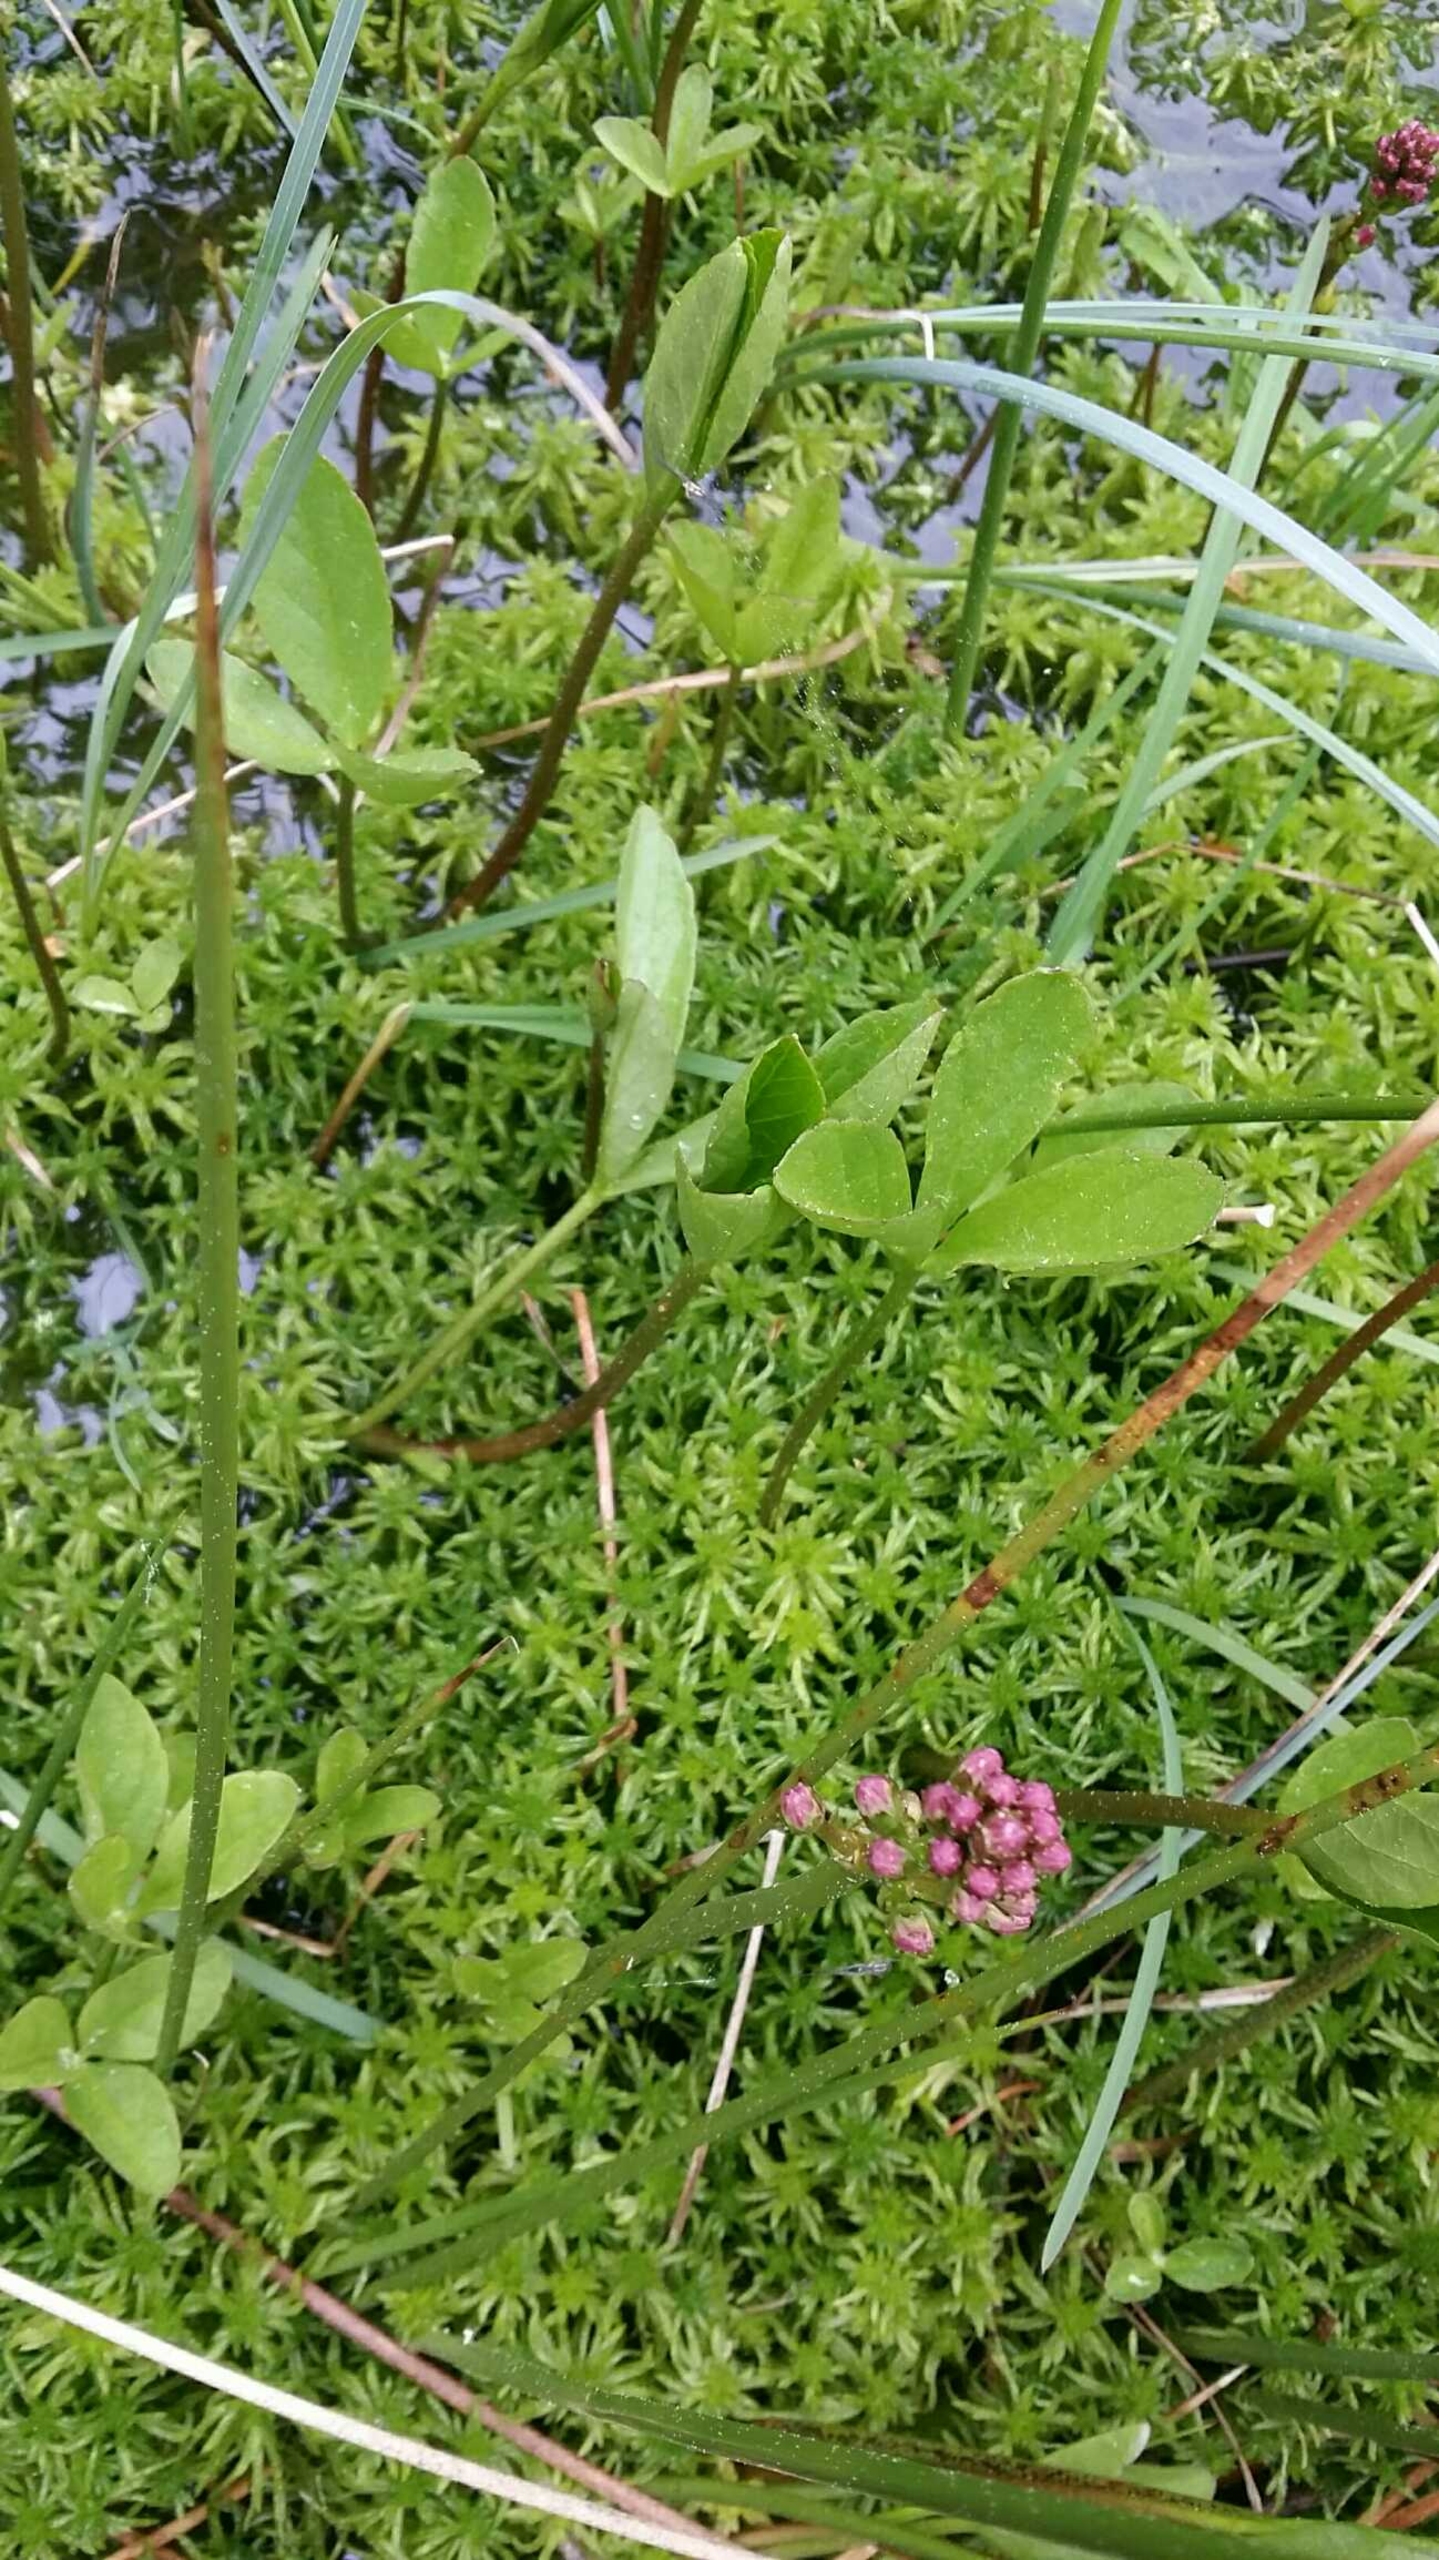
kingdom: Plantae
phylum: Tracheophyta
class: Magnoliopsida
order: Asterales
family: Menyanthaceae
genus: Menyanthes
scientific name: Menyanthes trifoliata
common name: Bukkeblad
